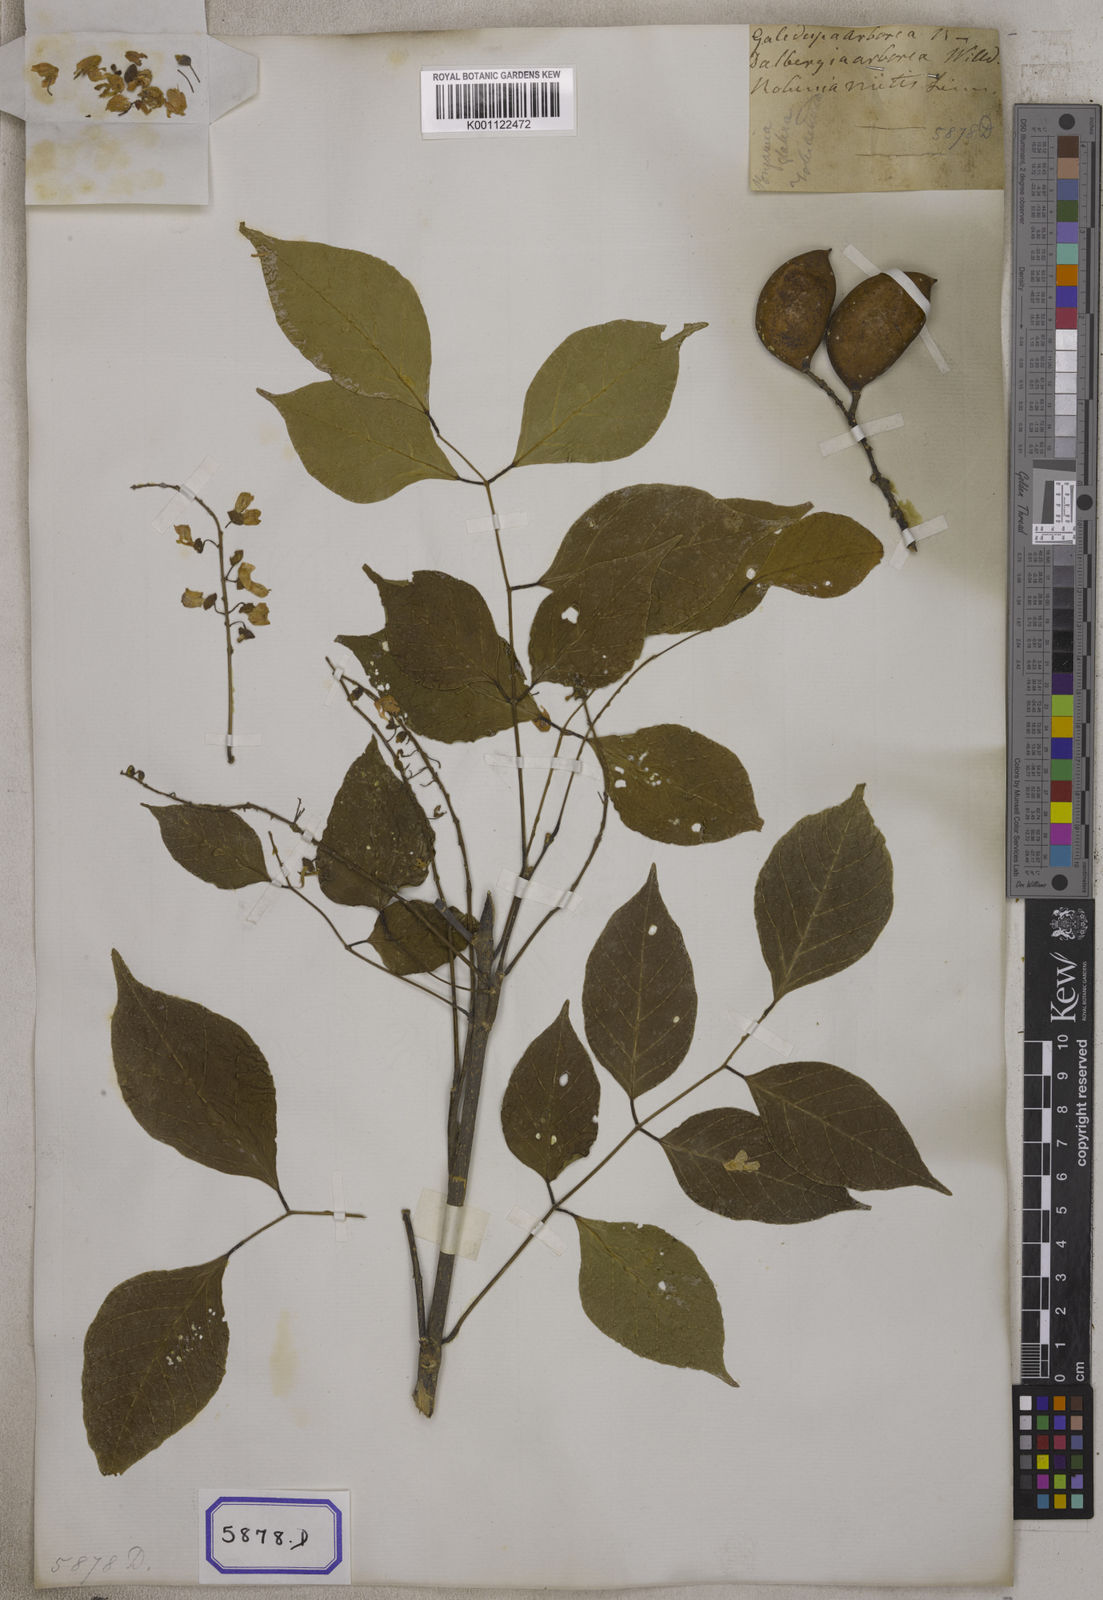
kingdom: Plantae
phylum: Tracheophyta
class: Magnoliopsida
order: Fabales
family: Fabaceae
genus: Pongamia
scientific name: Pongamia pinnata
